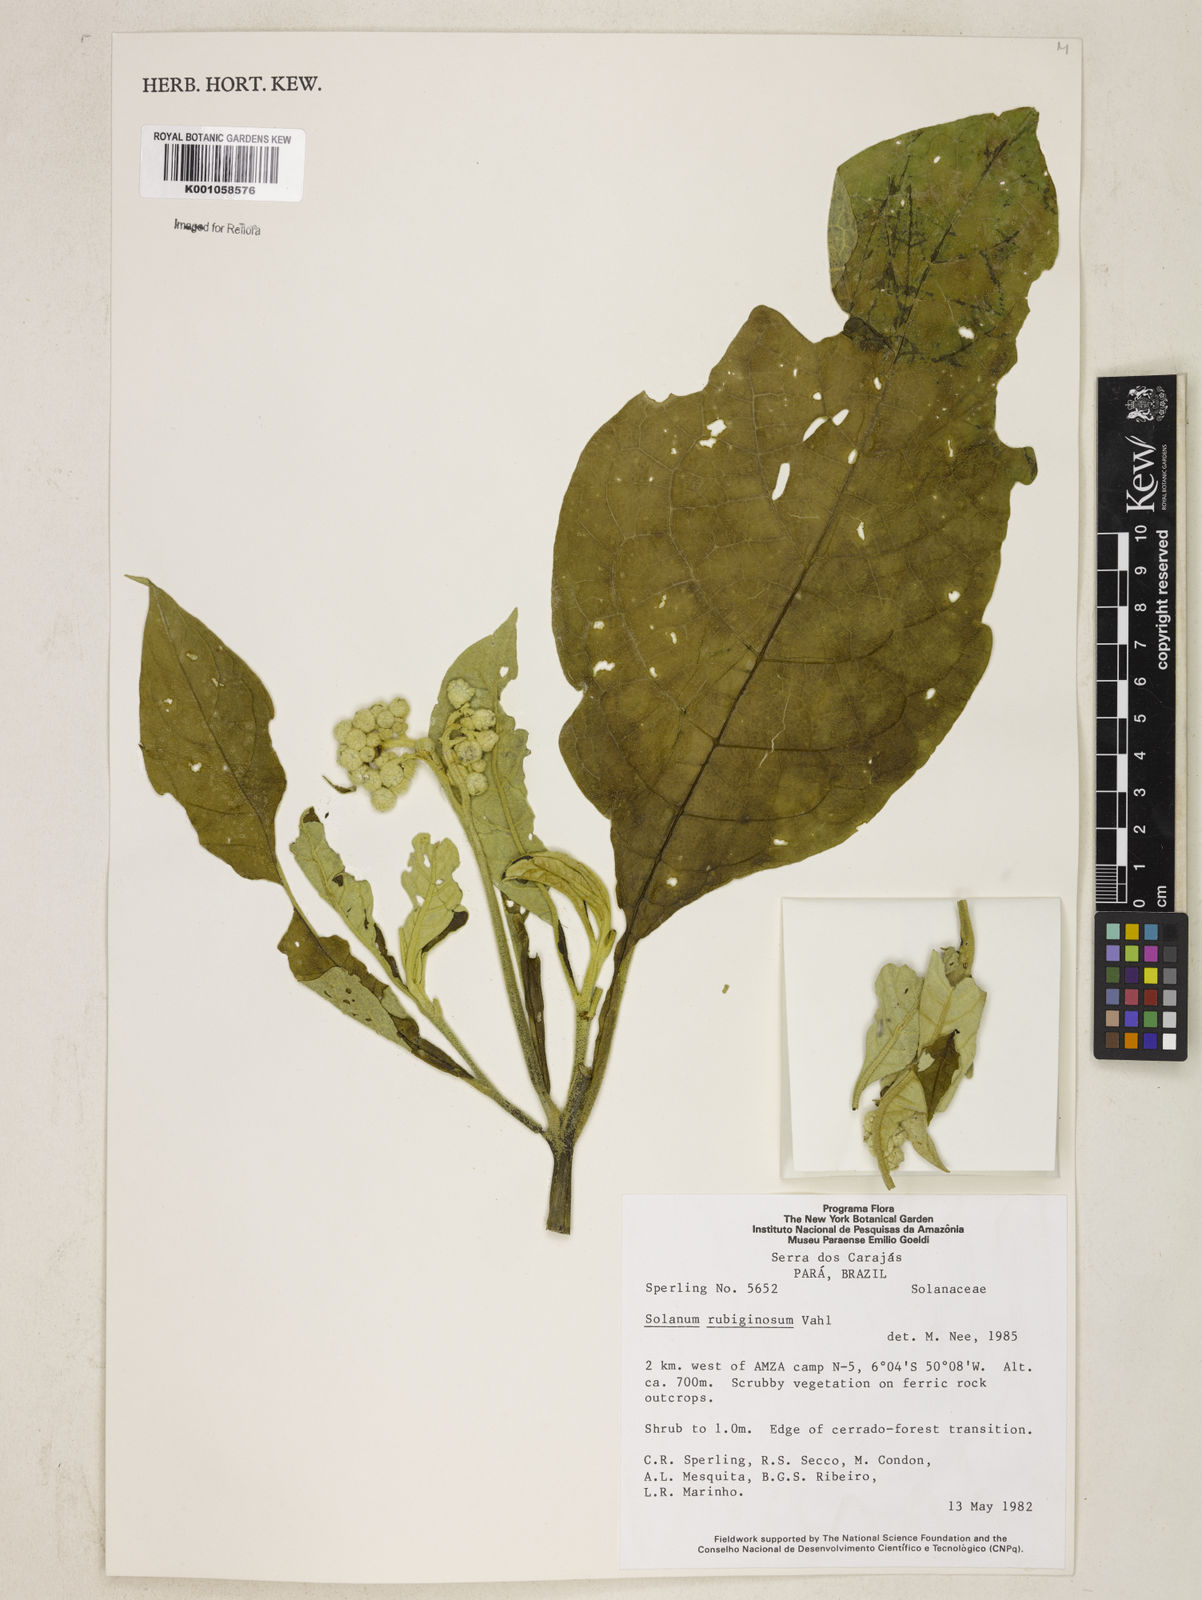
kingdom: Plantae
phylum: Tracheophyta
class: Magnoliopsida
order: Solanales
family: Solanaceae
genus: Solanum
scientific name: Solanum rubiginosum
